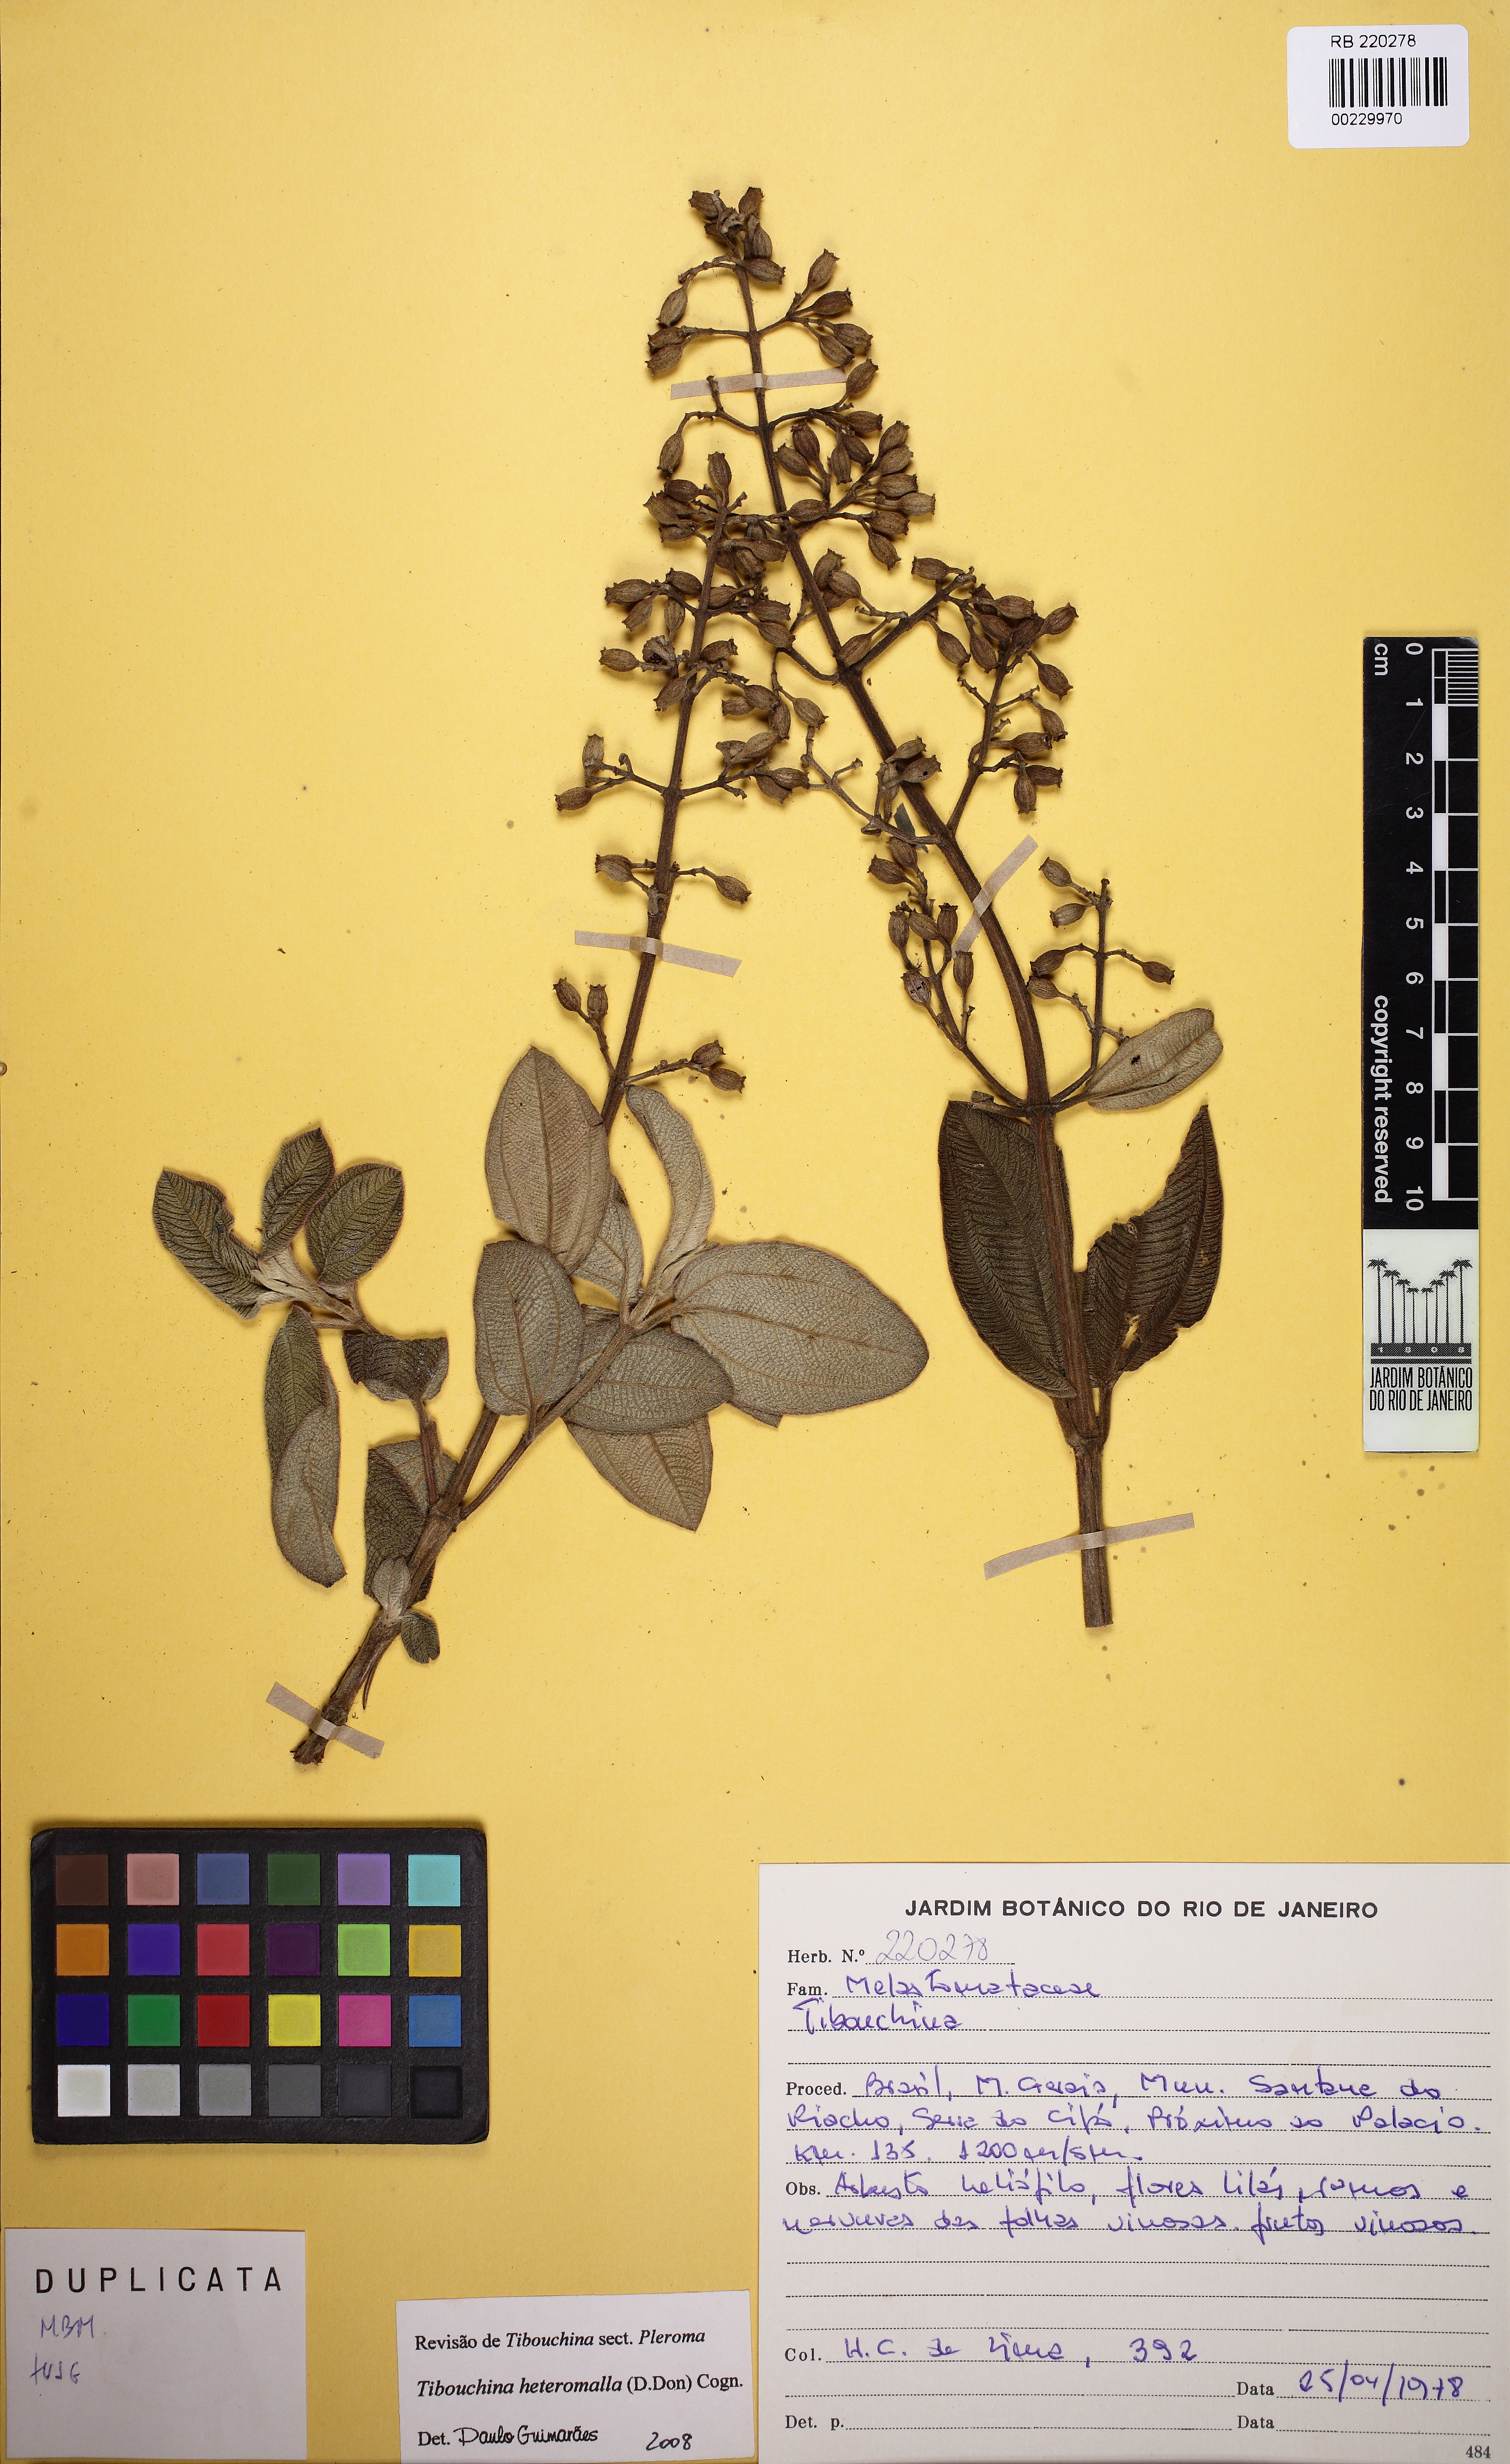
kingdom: Plantae
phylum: Tracheophyta
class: Magnoliopsida
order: Myrtales
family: Melastomataceae
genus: Pleroma
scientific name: Pleroma heteromallum
